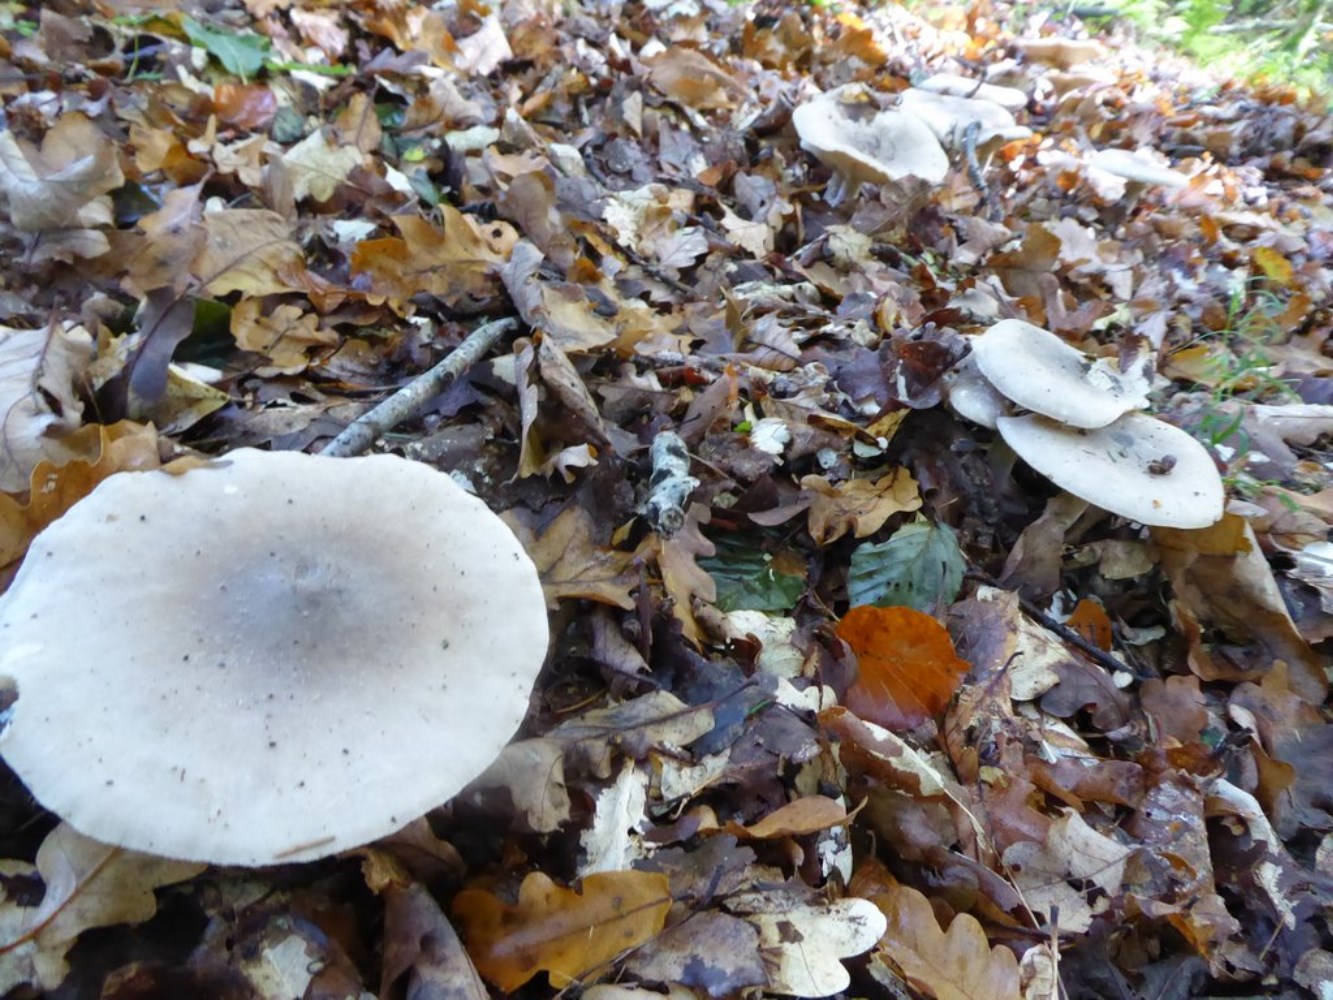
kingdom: Fungi
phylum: Basidiomycota
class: Agaricomycetes
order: Agaricales
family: Tricholomataceae
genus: Clitocybe
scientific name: Clitocybe nebularis
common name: tåge-tragthat
